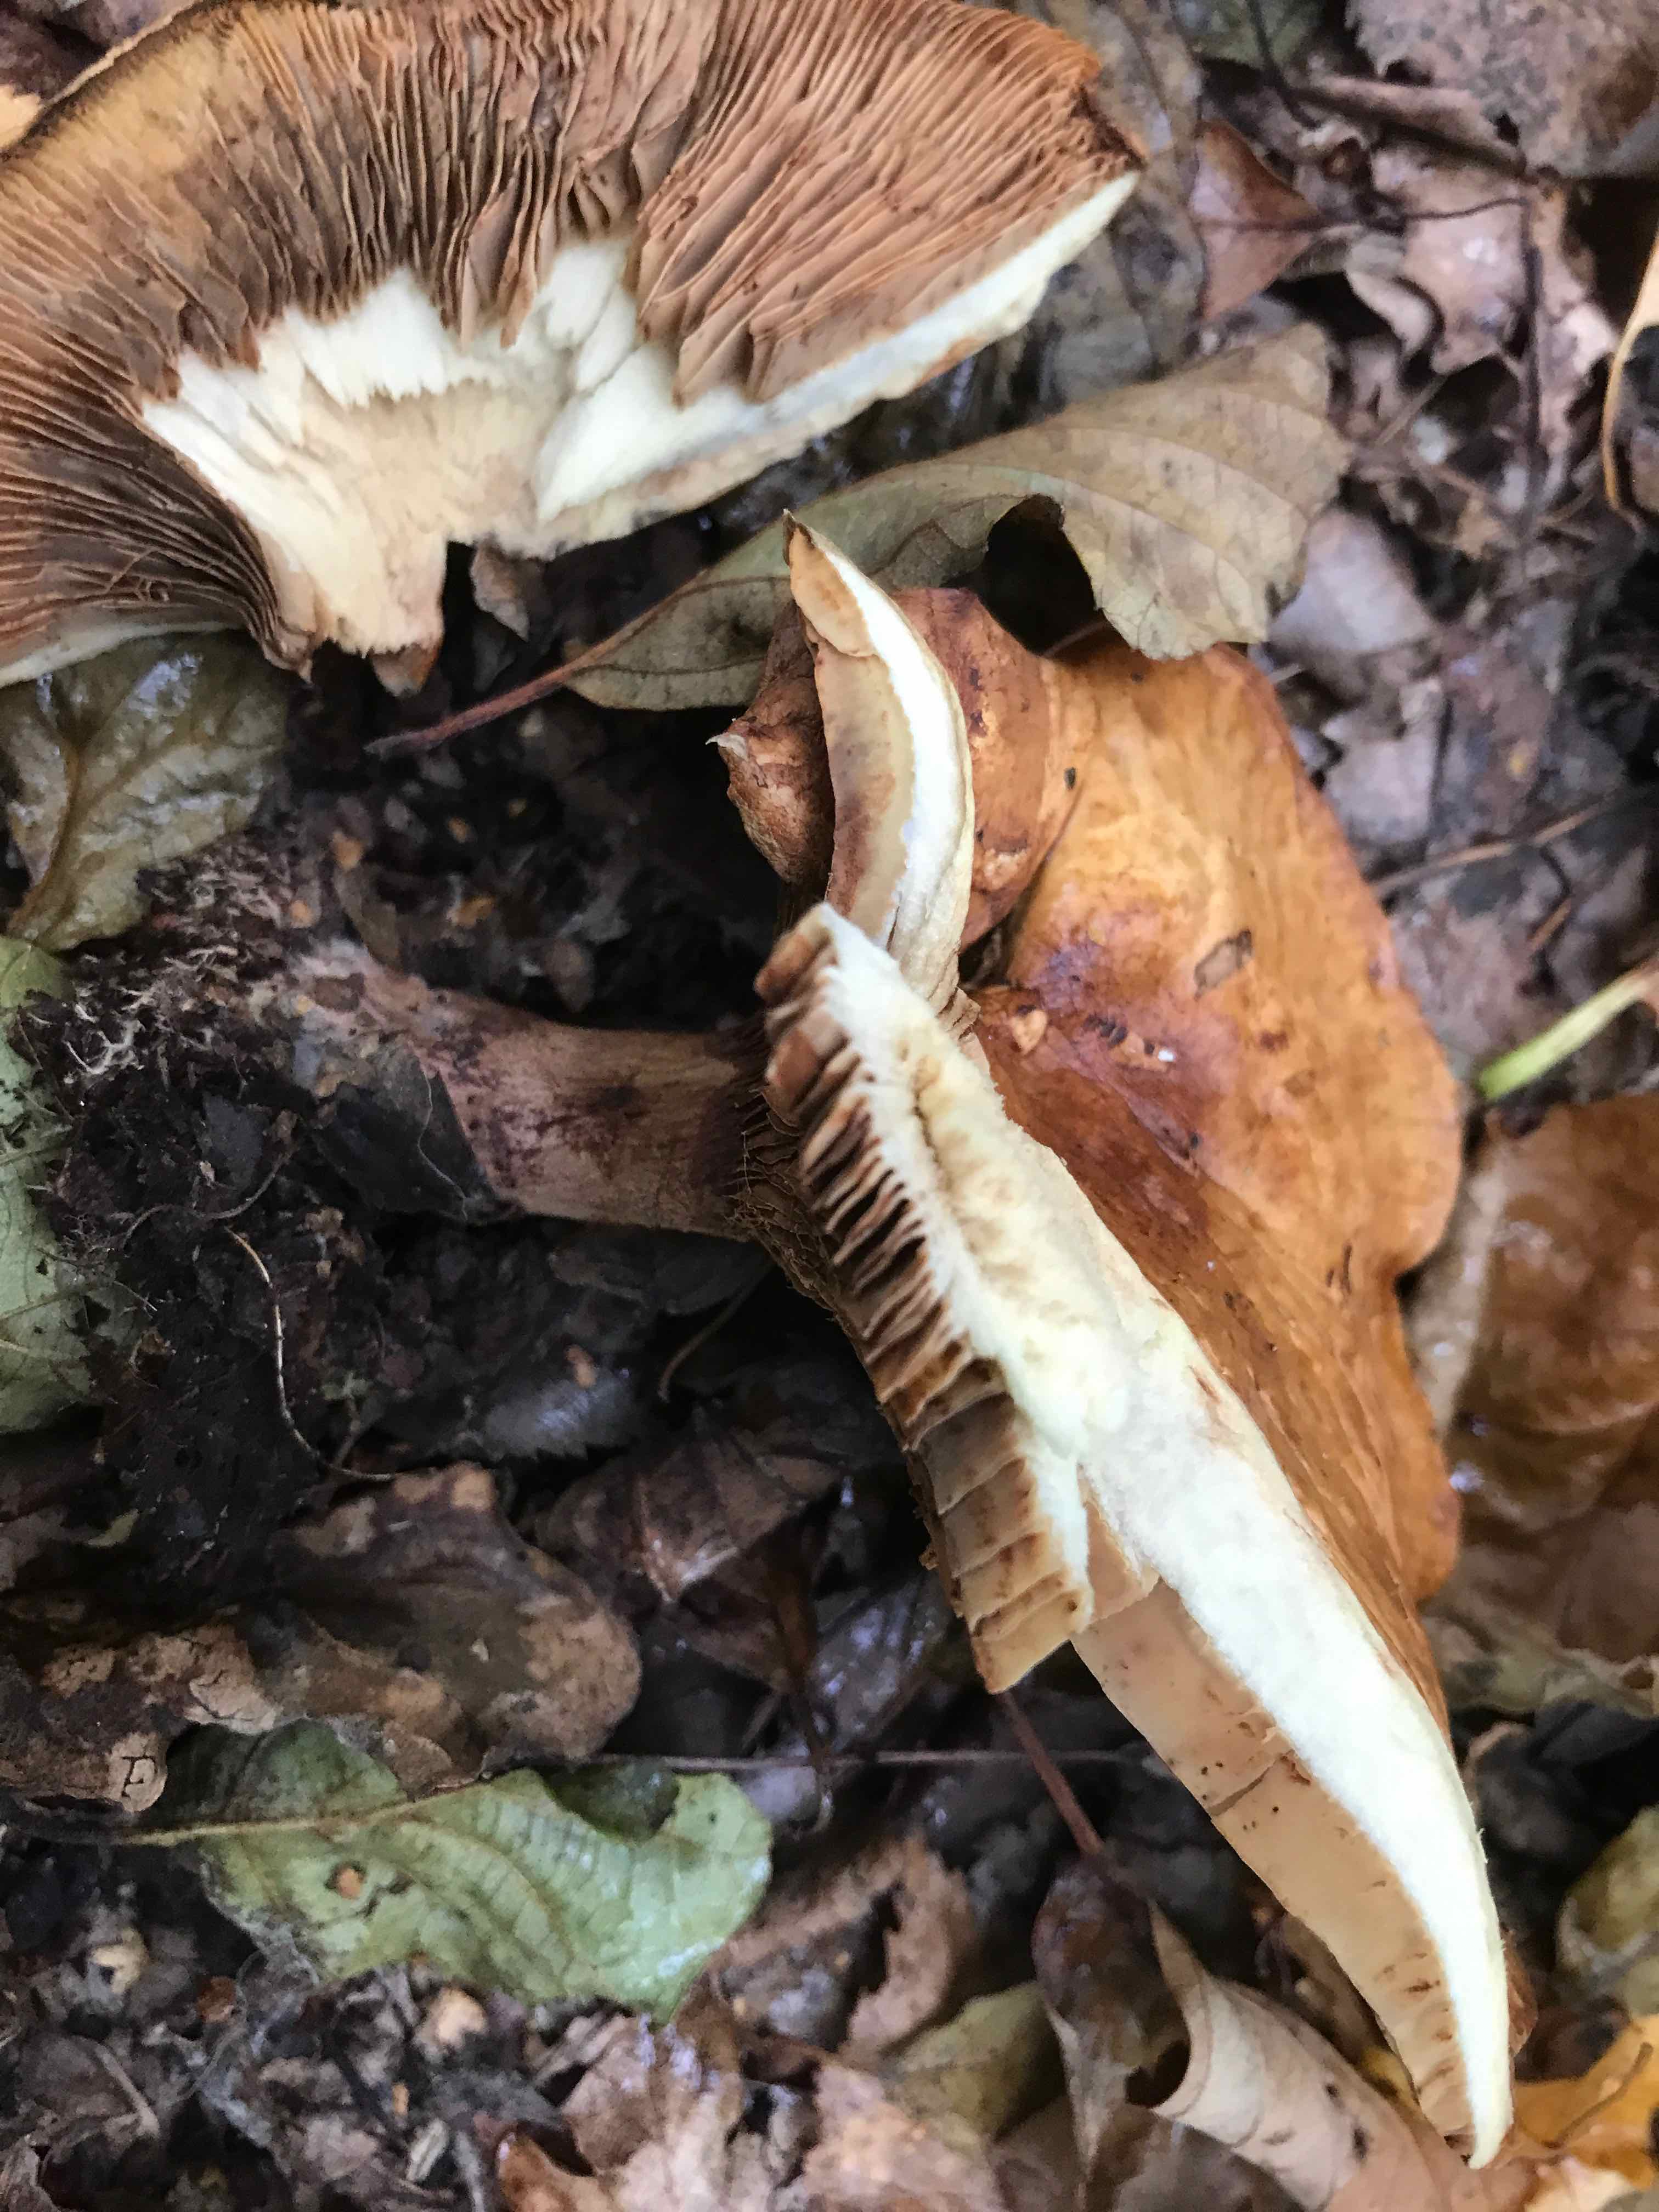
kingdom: Fungi
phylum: Basidiomycota
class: Agaricomycetes
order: Boletales
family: Paxillaceae
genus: Paxillus
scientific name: Paxillus
